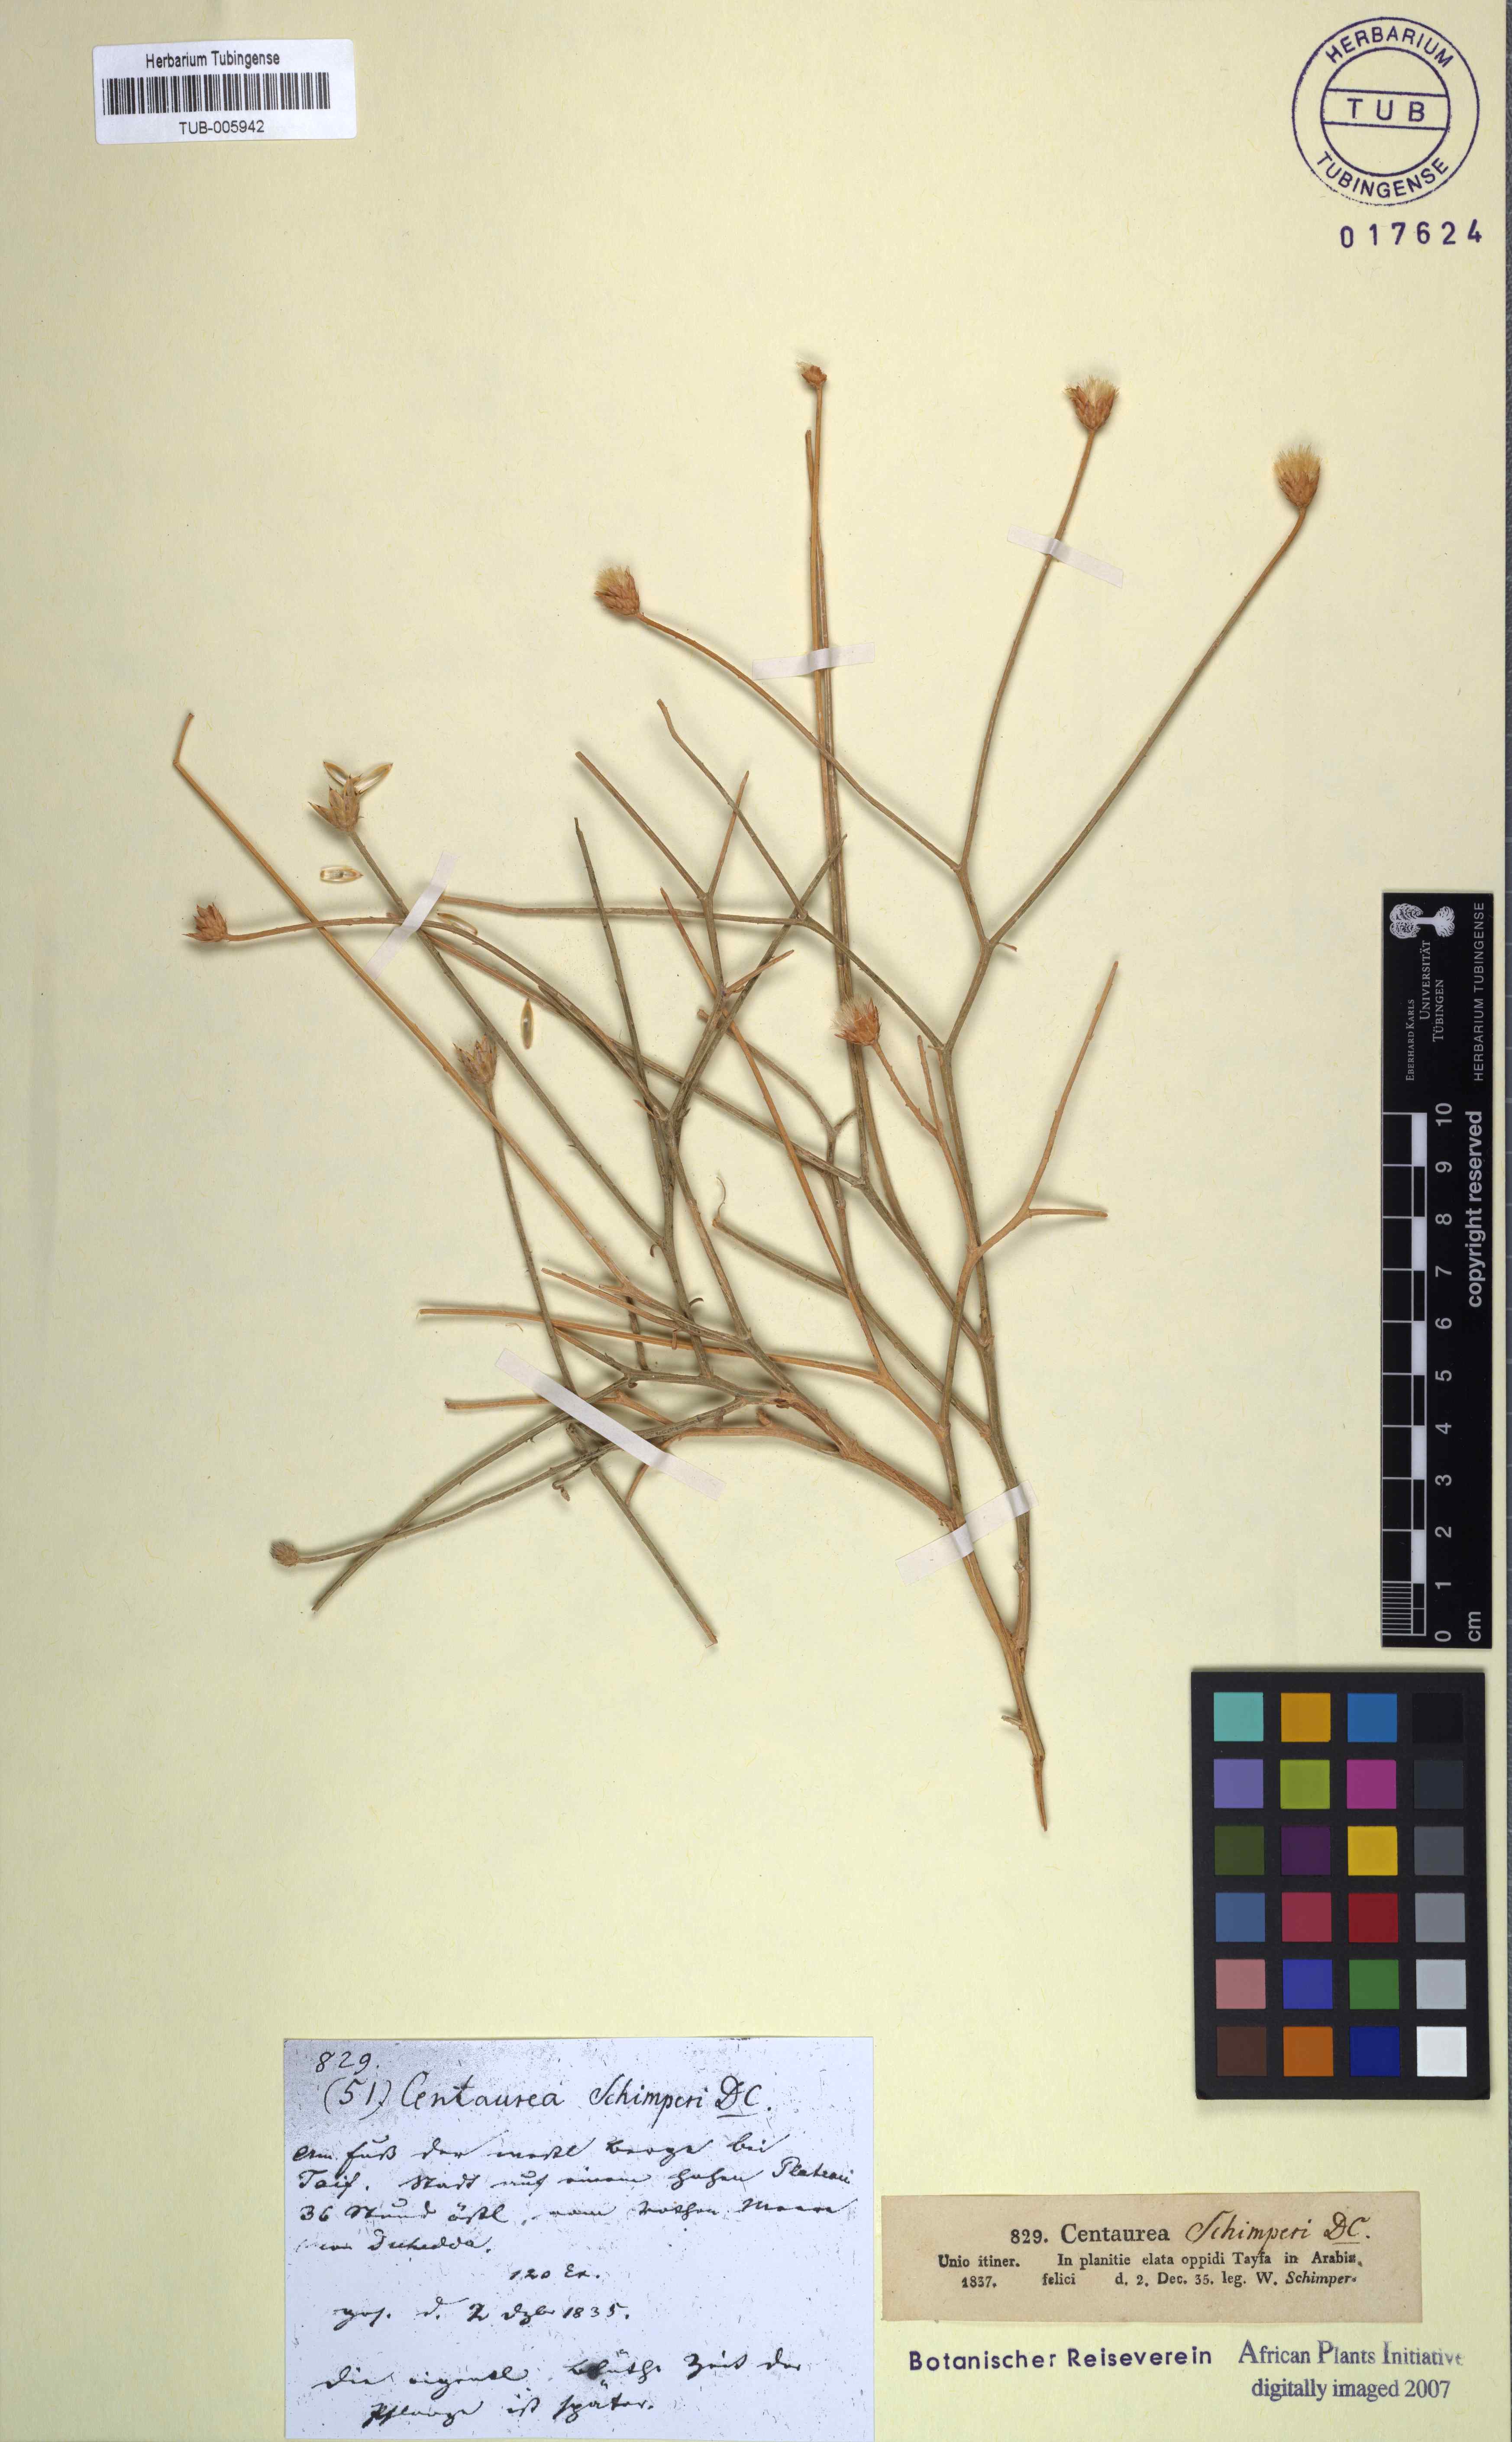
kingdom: Plantae
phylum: Tracheophyta
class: Magnoliopsida
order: Asterales
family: Asteraceae
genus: Centaurea
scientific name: Centaurea schimperi
